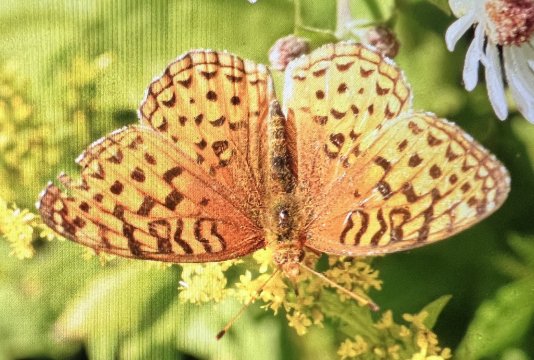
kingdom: Animalia
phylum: Arthropoda
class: Insecta
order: Lepidoptera
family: Nymphalidae
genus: Speyeria
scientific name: Speyeria aphrodite
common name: Aphrodite Fritillary
